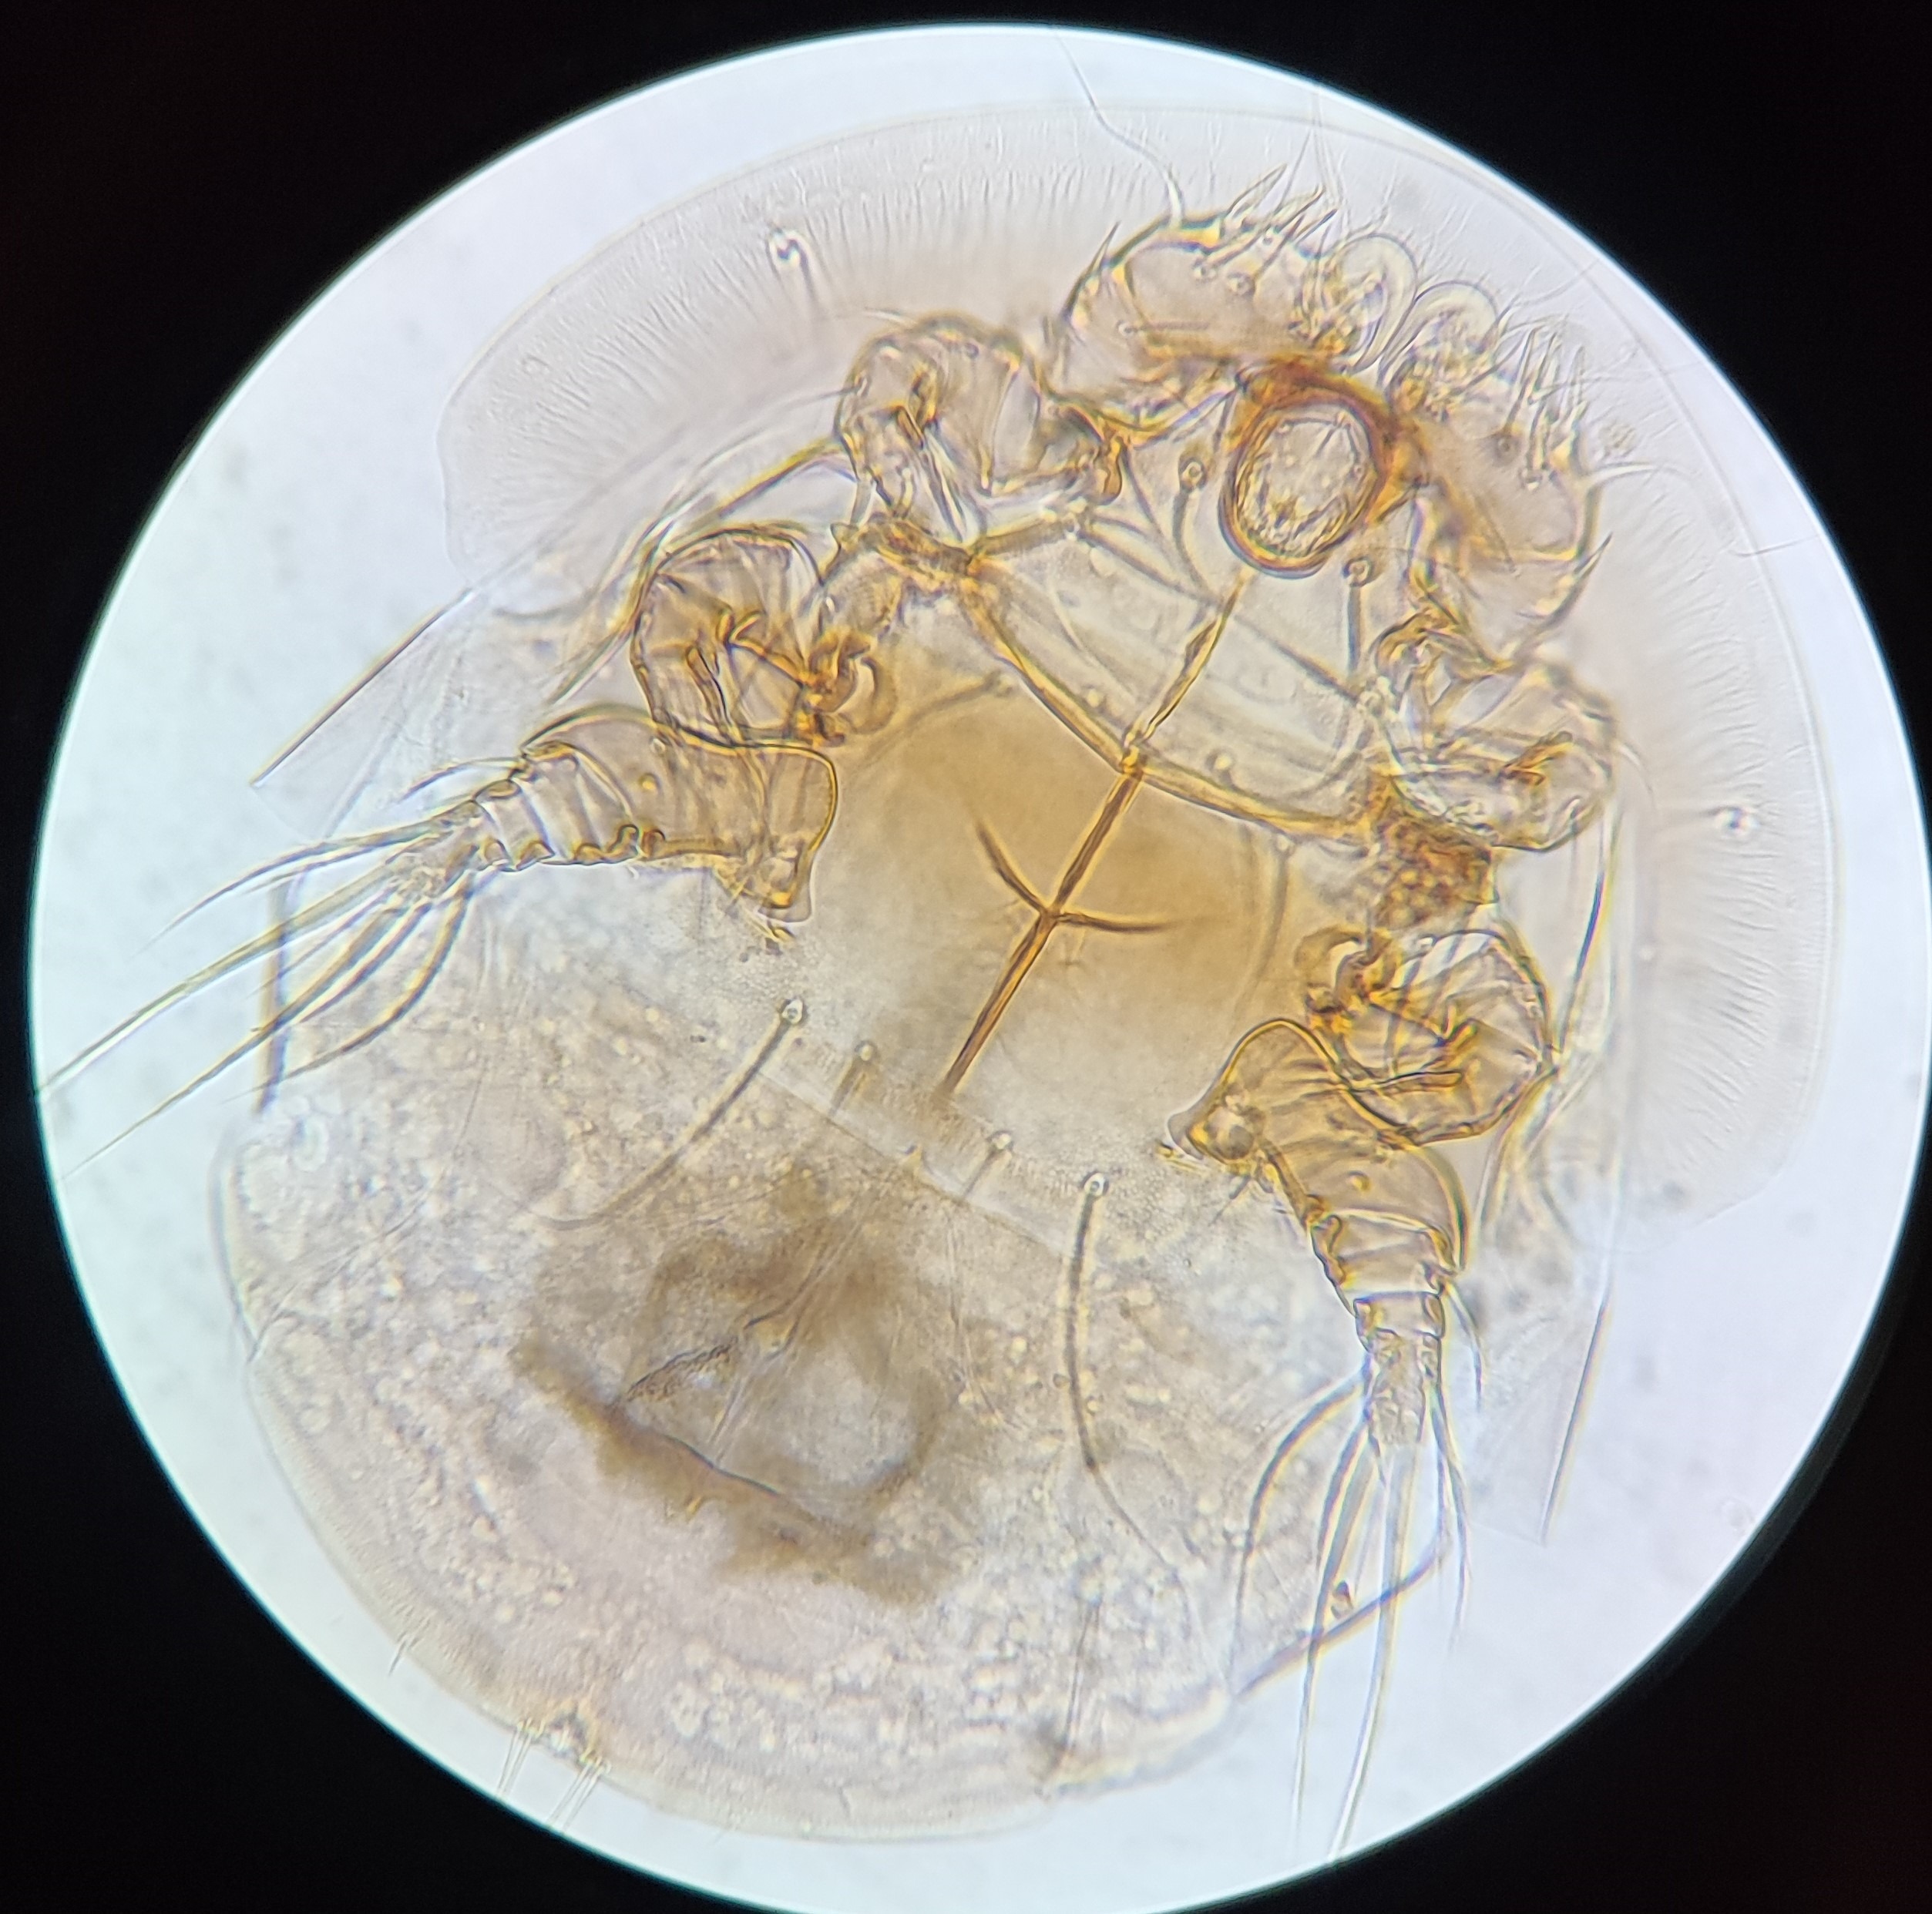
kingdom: Animalia
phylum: Arthropoda
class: Arachnida
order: Trombidiformes
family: Scutacaridae
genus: Scutacarus
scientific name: Scutacarus acarorum
